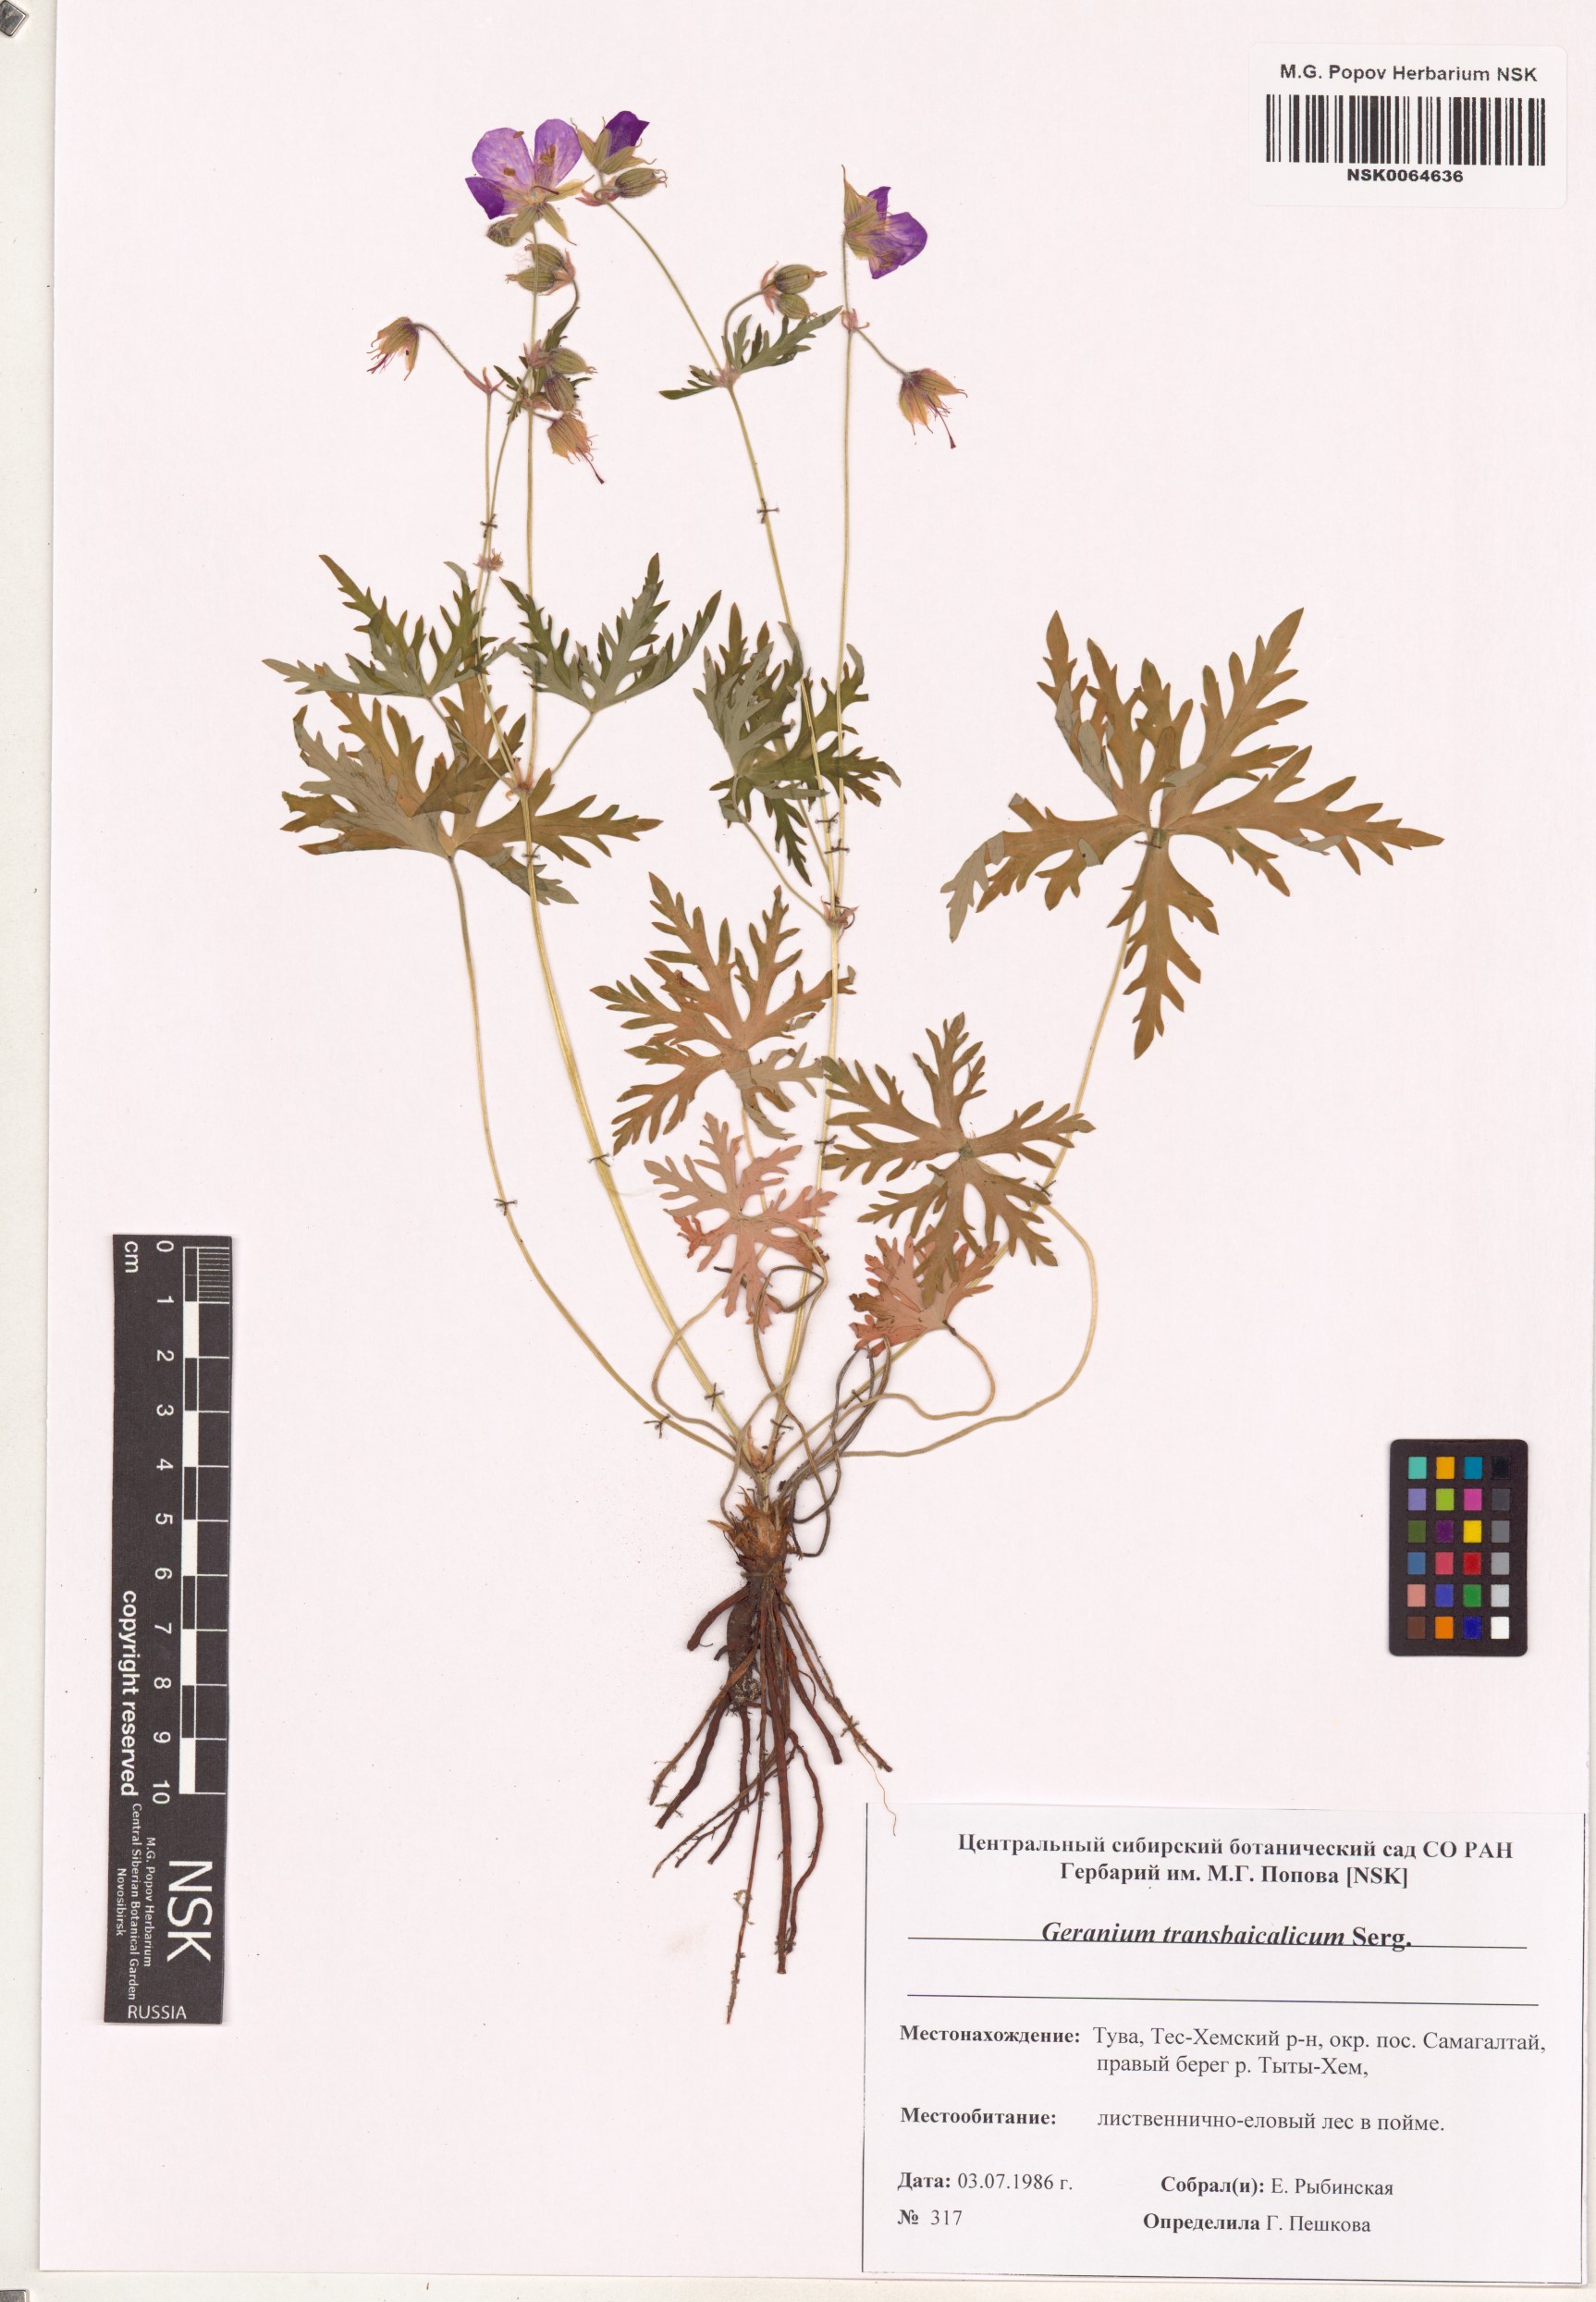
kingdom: Plantae
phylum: Tracheophyta
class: Magnoliopsida
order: Geraniales
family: Geraniaceae
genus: Geranium
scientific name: Geranium pratense
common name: Meadow crane's-bill
